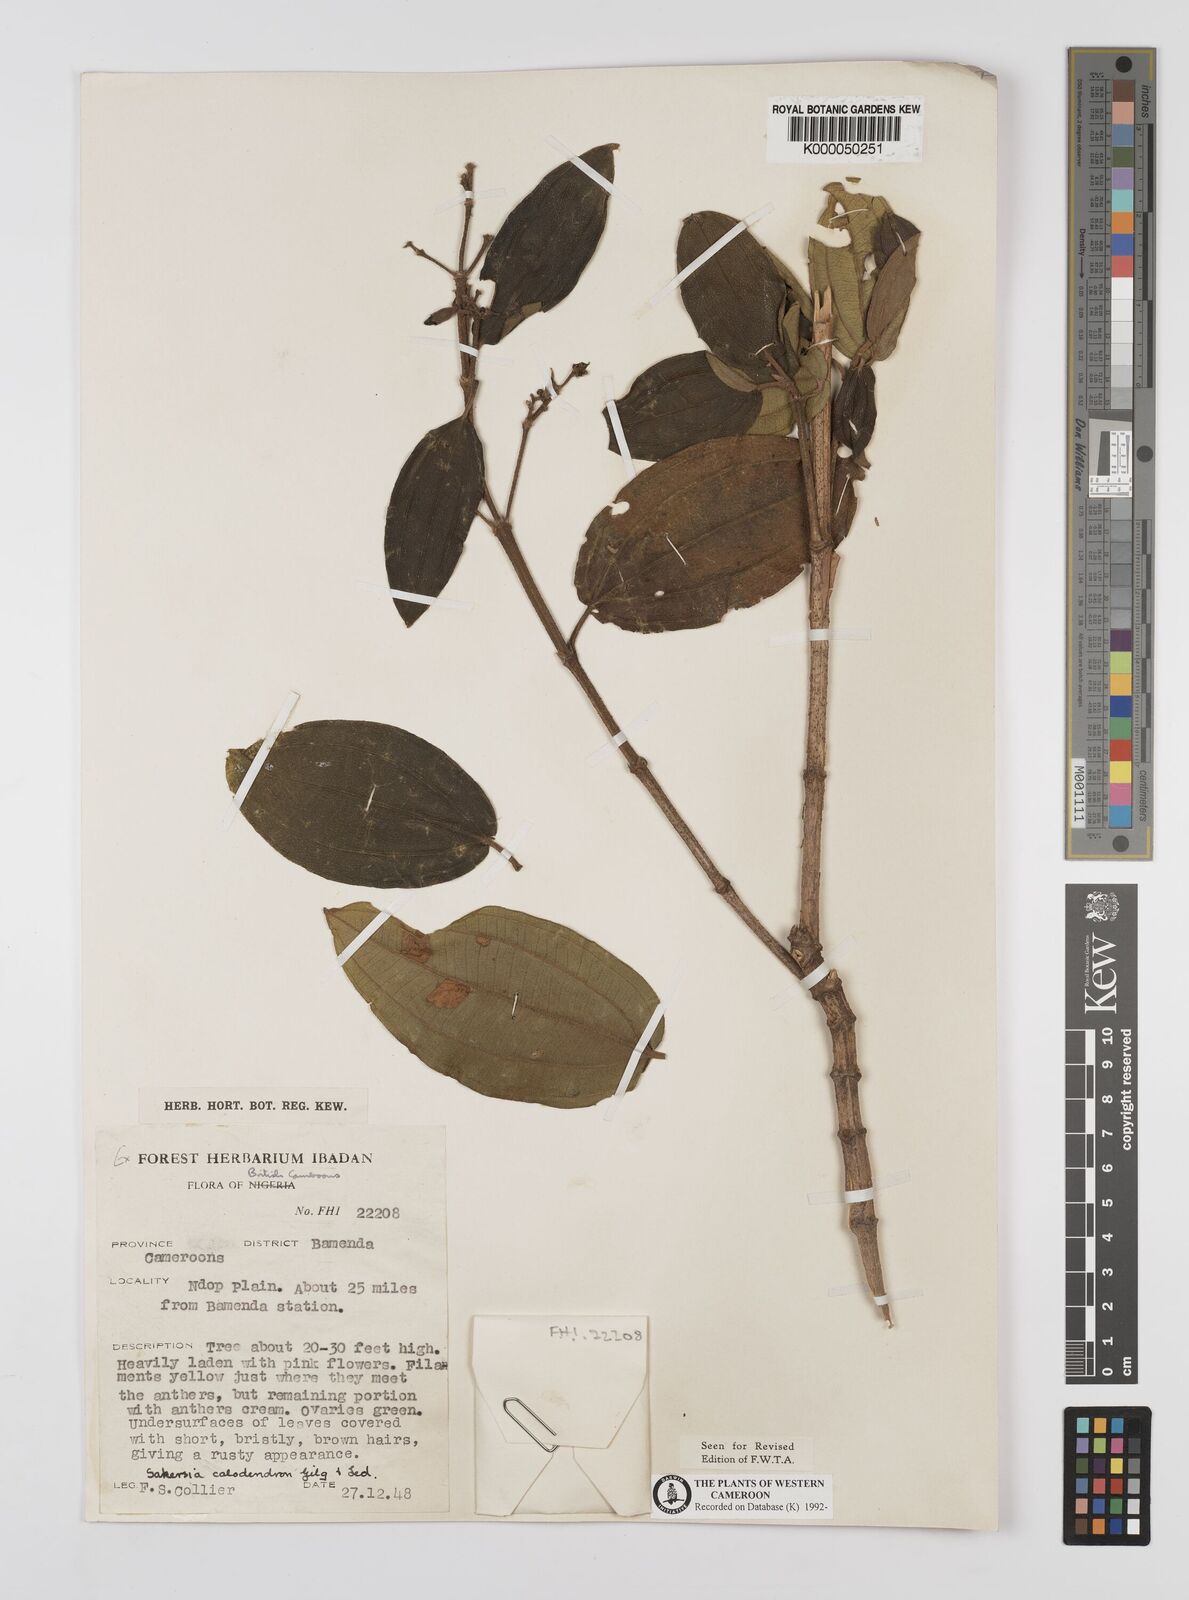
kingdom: Plantae
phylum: Tracheophyta
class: Magnoliopsida
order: Myrtales
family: Melastomataceae
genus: Dichaetanthera
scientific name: Dichaetanthera
